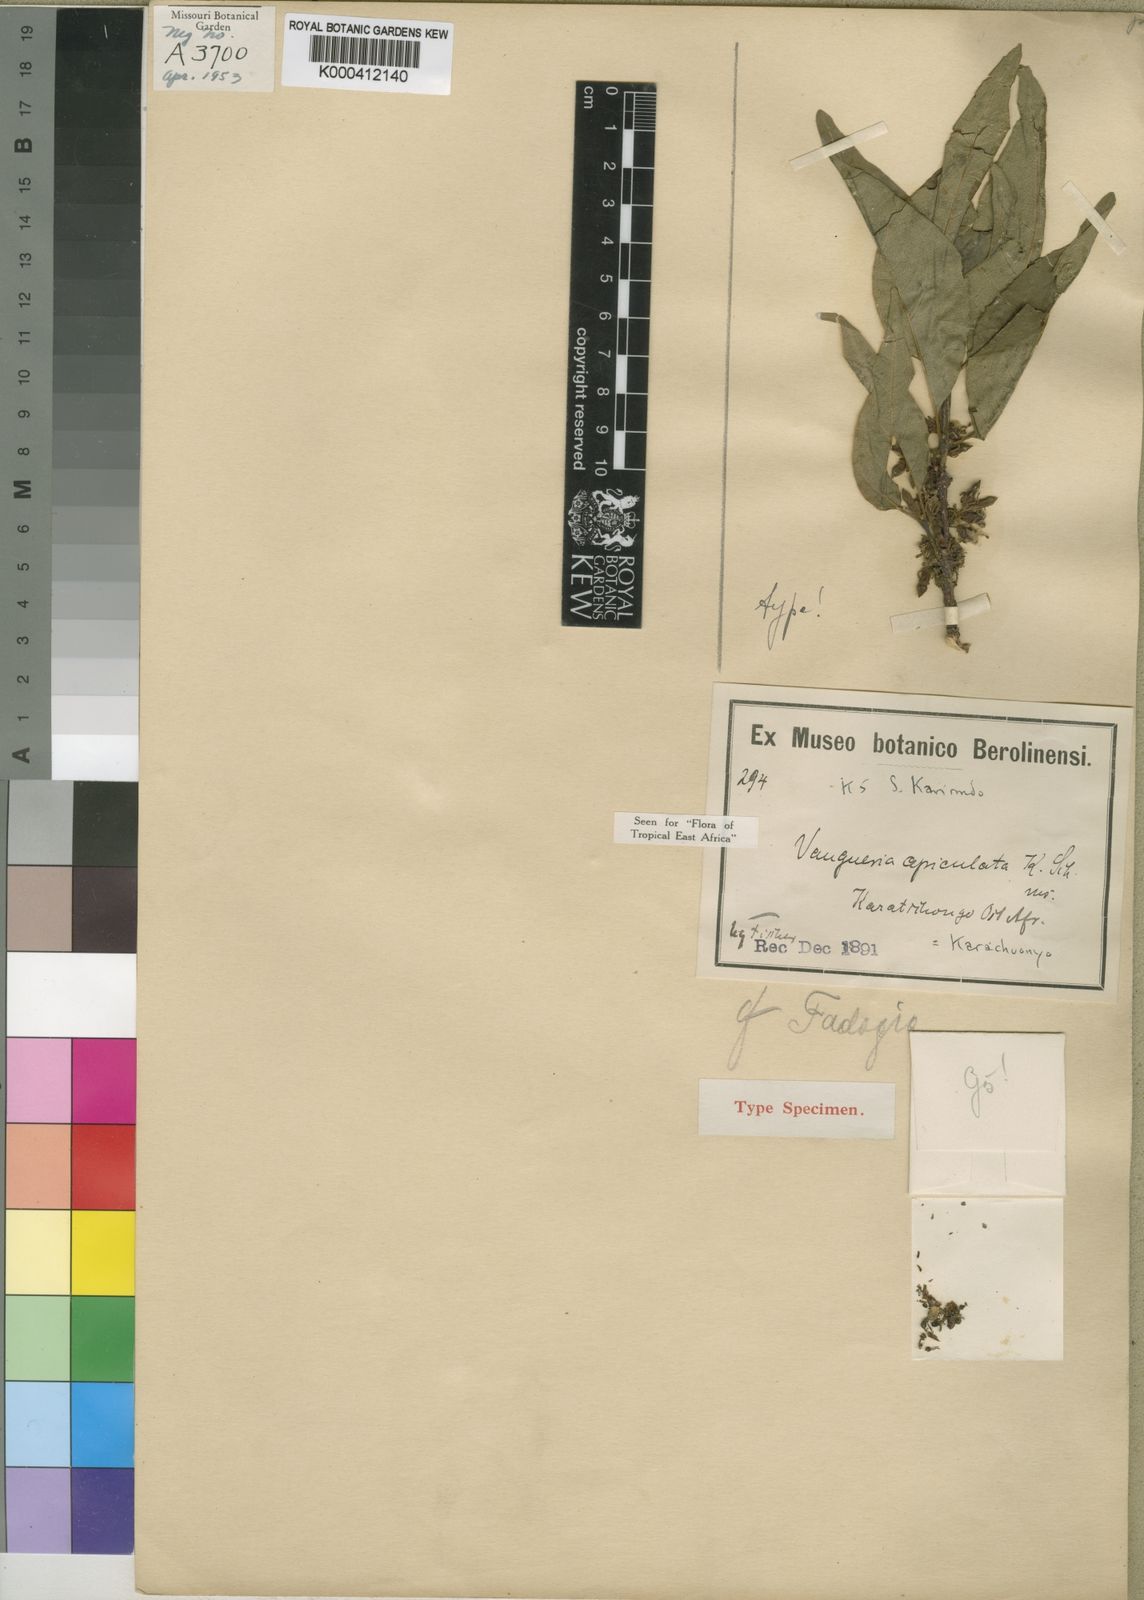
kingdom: Plantae
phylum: Tracheophyta
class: Magnoliopsida
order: Gentianales
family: Rubiaceae
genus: Vangueria
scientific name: Vangueria apiculata
